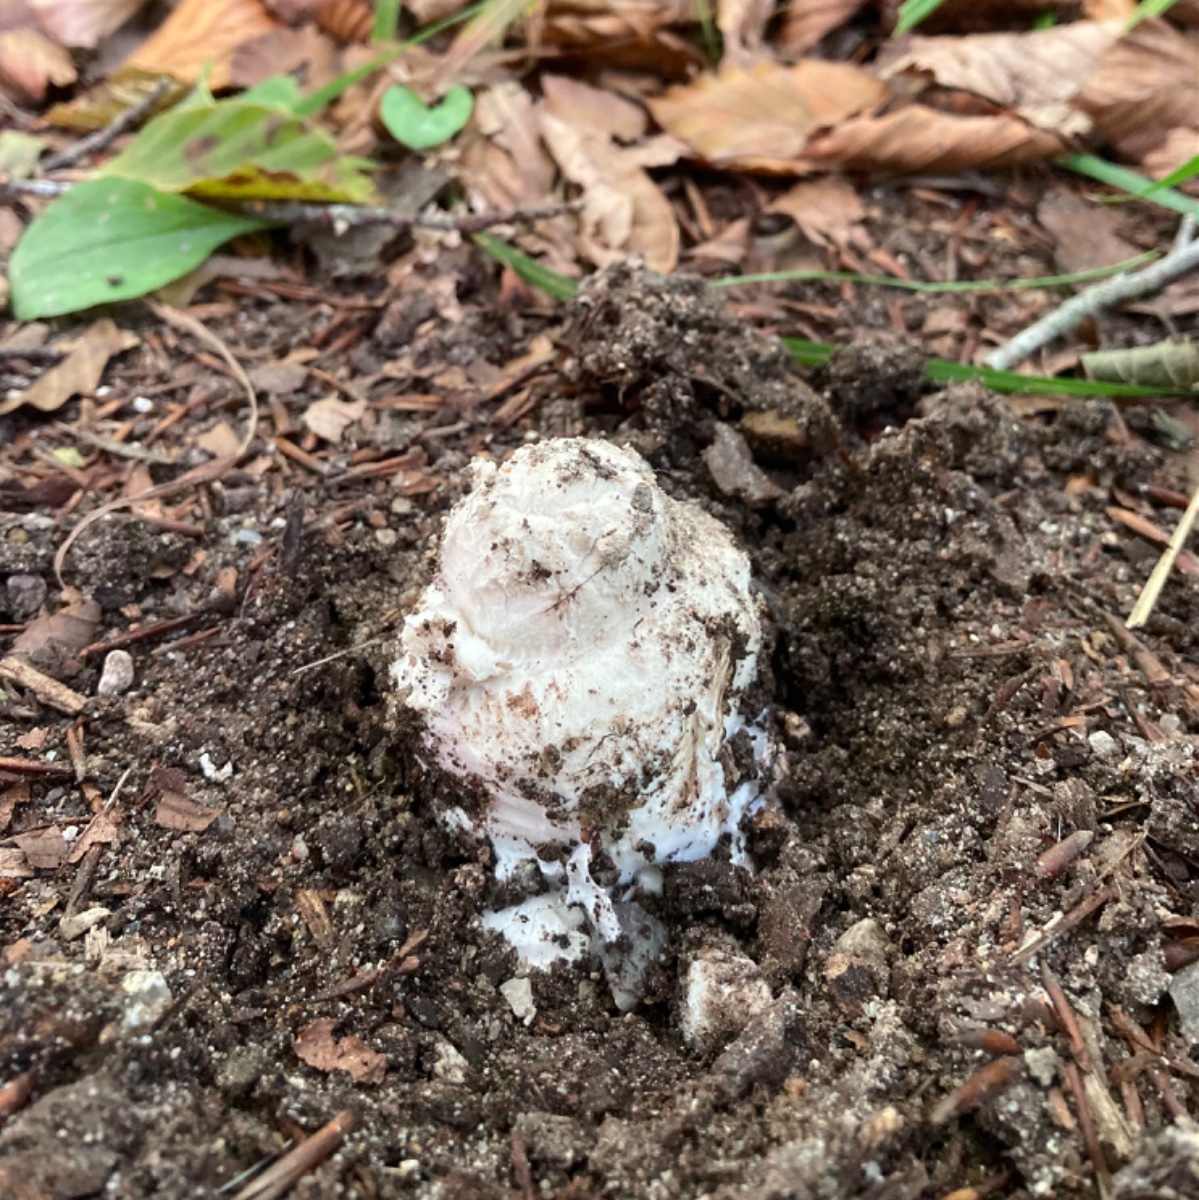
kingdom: Fungi
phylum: Basidiomycota
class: Agaricomycetes
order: Agaricales
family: Amanitaceae
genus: Amanita
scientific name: Amanita
